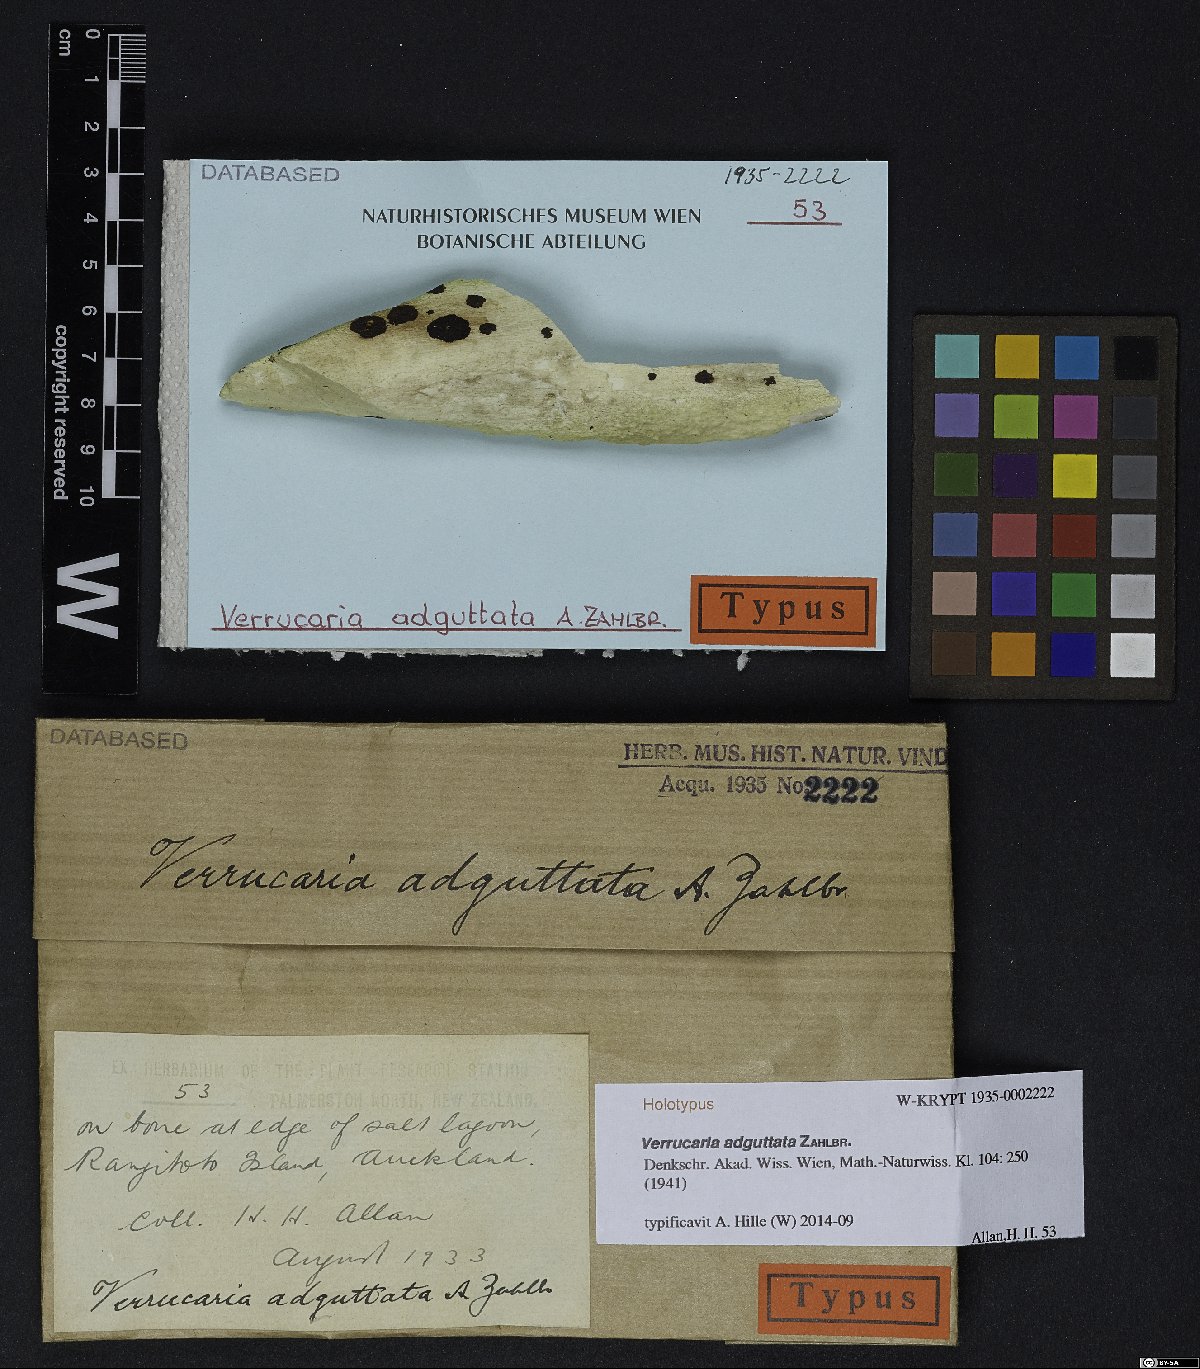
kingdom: Fungi
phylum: Ascomycota
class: Eurotiomycetes
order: Verrucariales
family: Verrucariaceae
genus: Verrucaria
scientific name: Verrucaria adguttata
